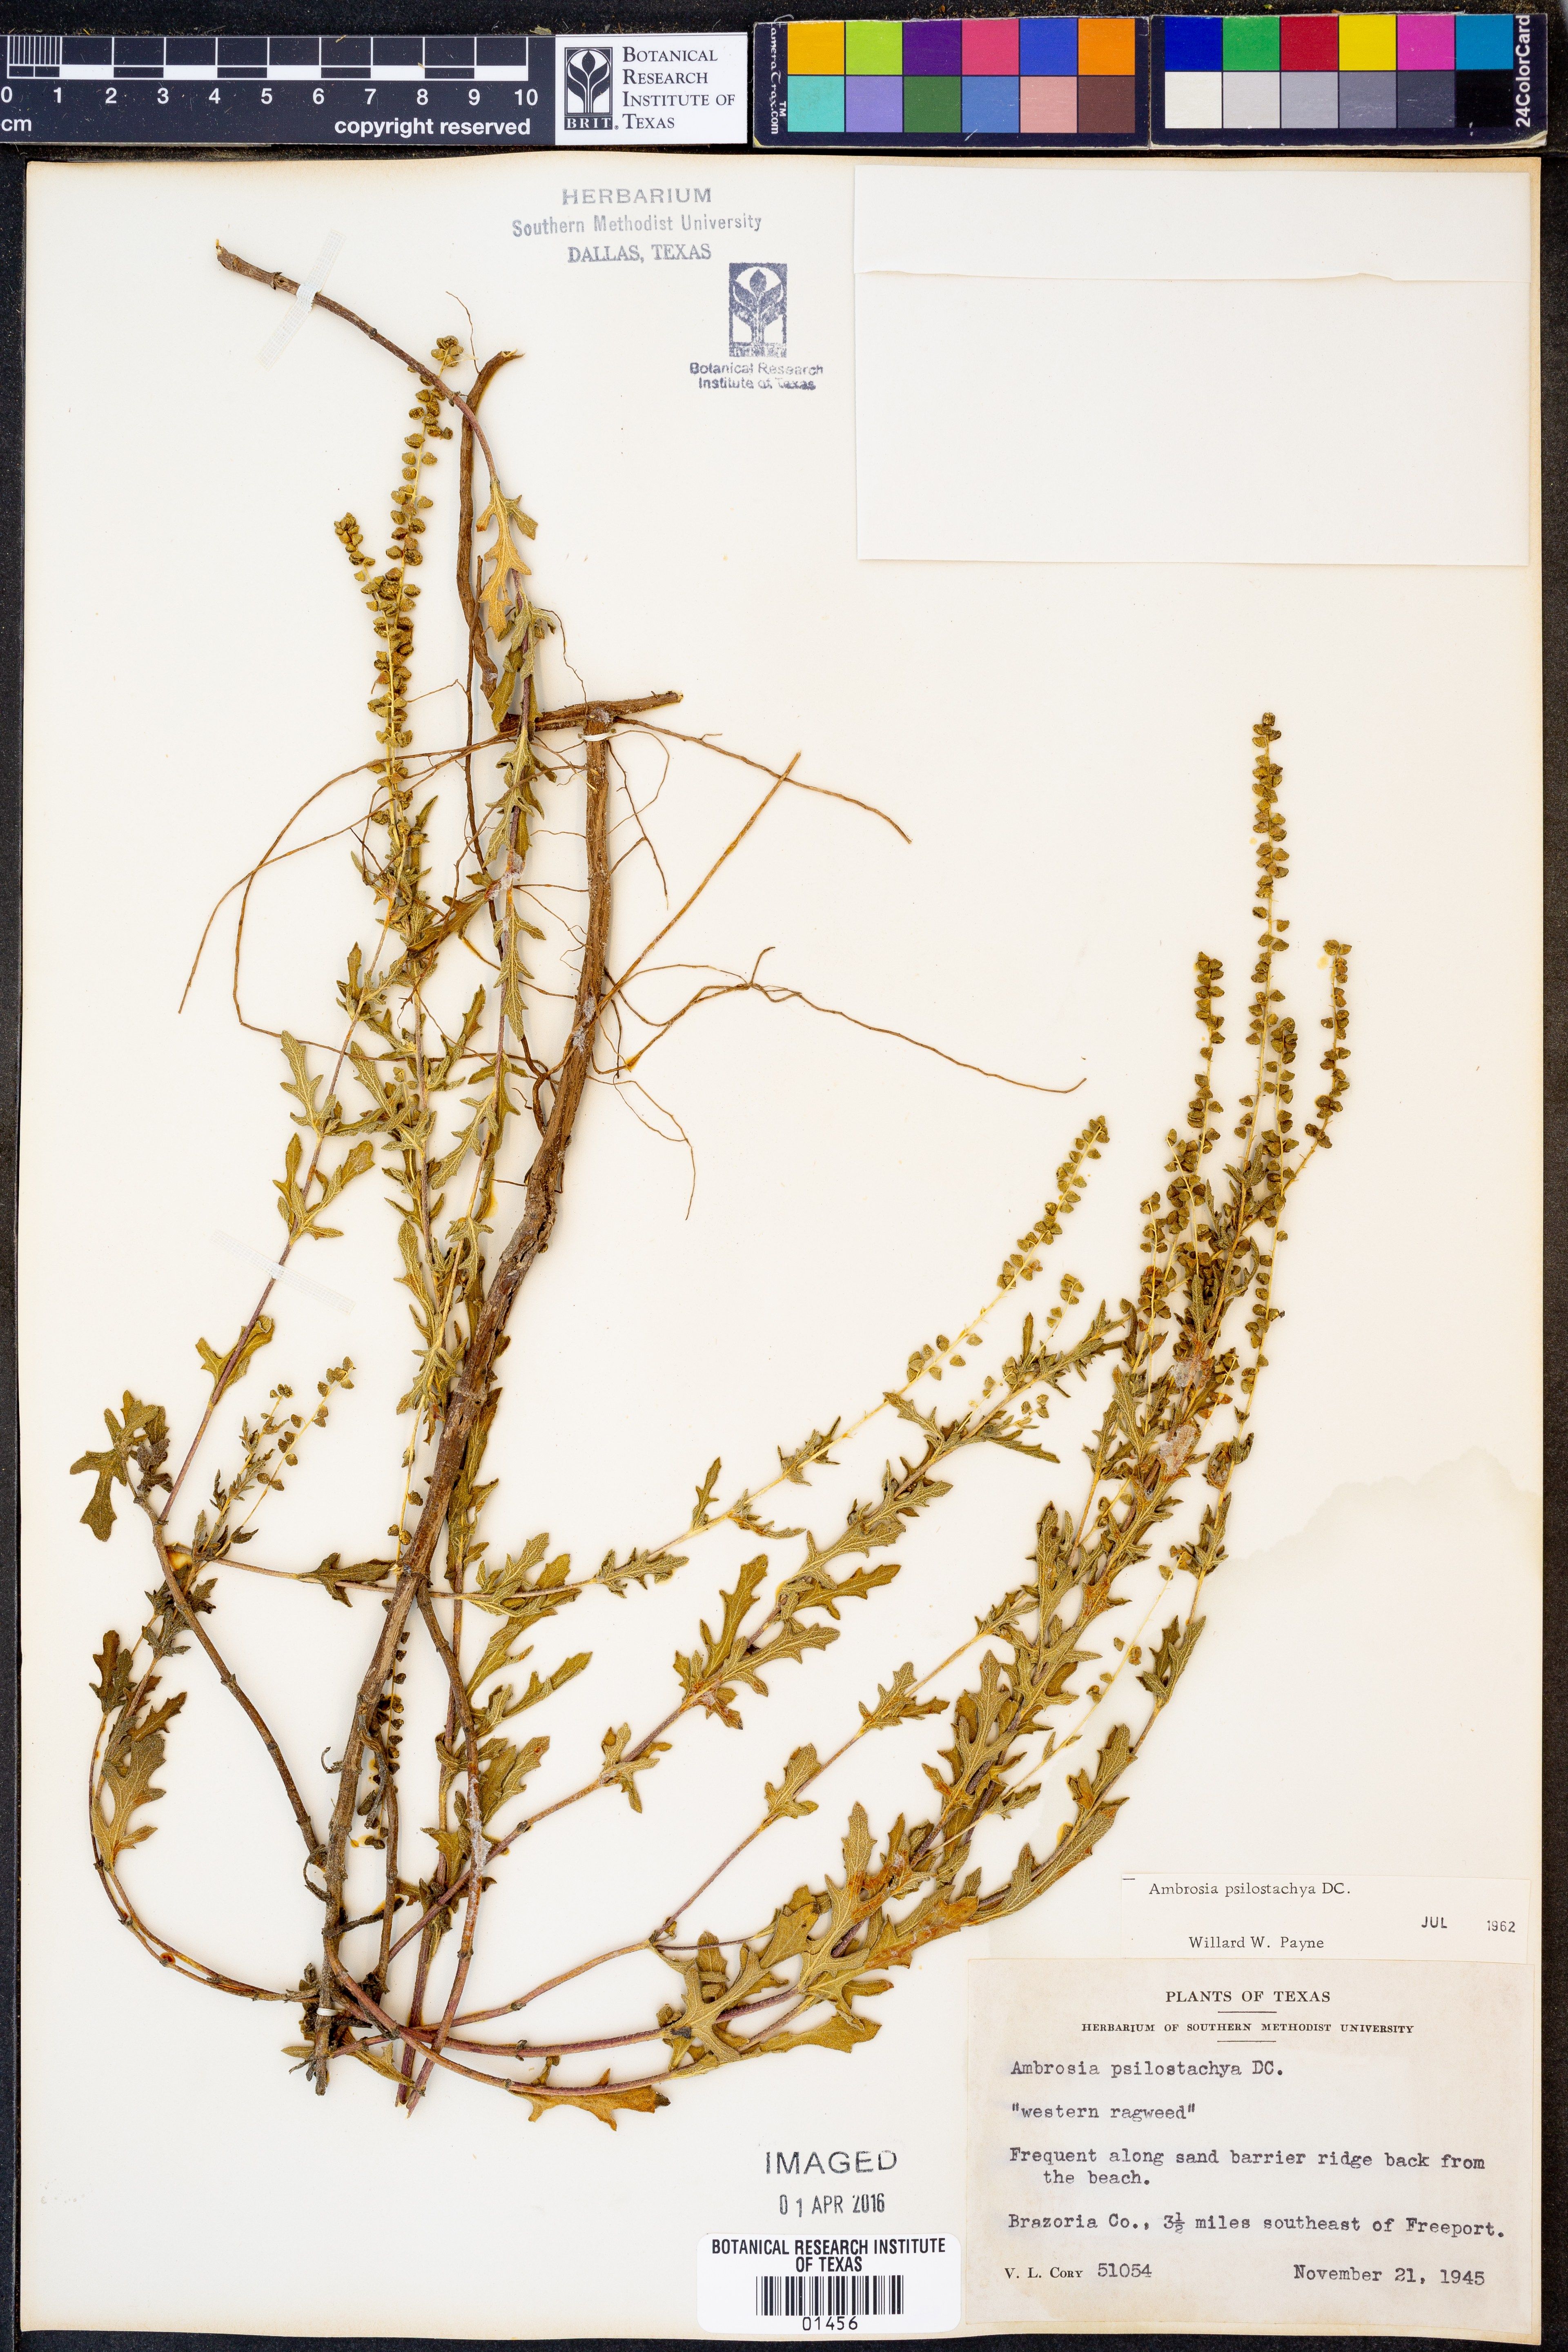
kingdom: Plantae
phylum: Tracheophyta
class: Magnoliopsida
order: Asterales
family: Asteraceae
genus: Ambrosia
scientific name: Ambrosia psilostachya
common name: Perennial ragweed
